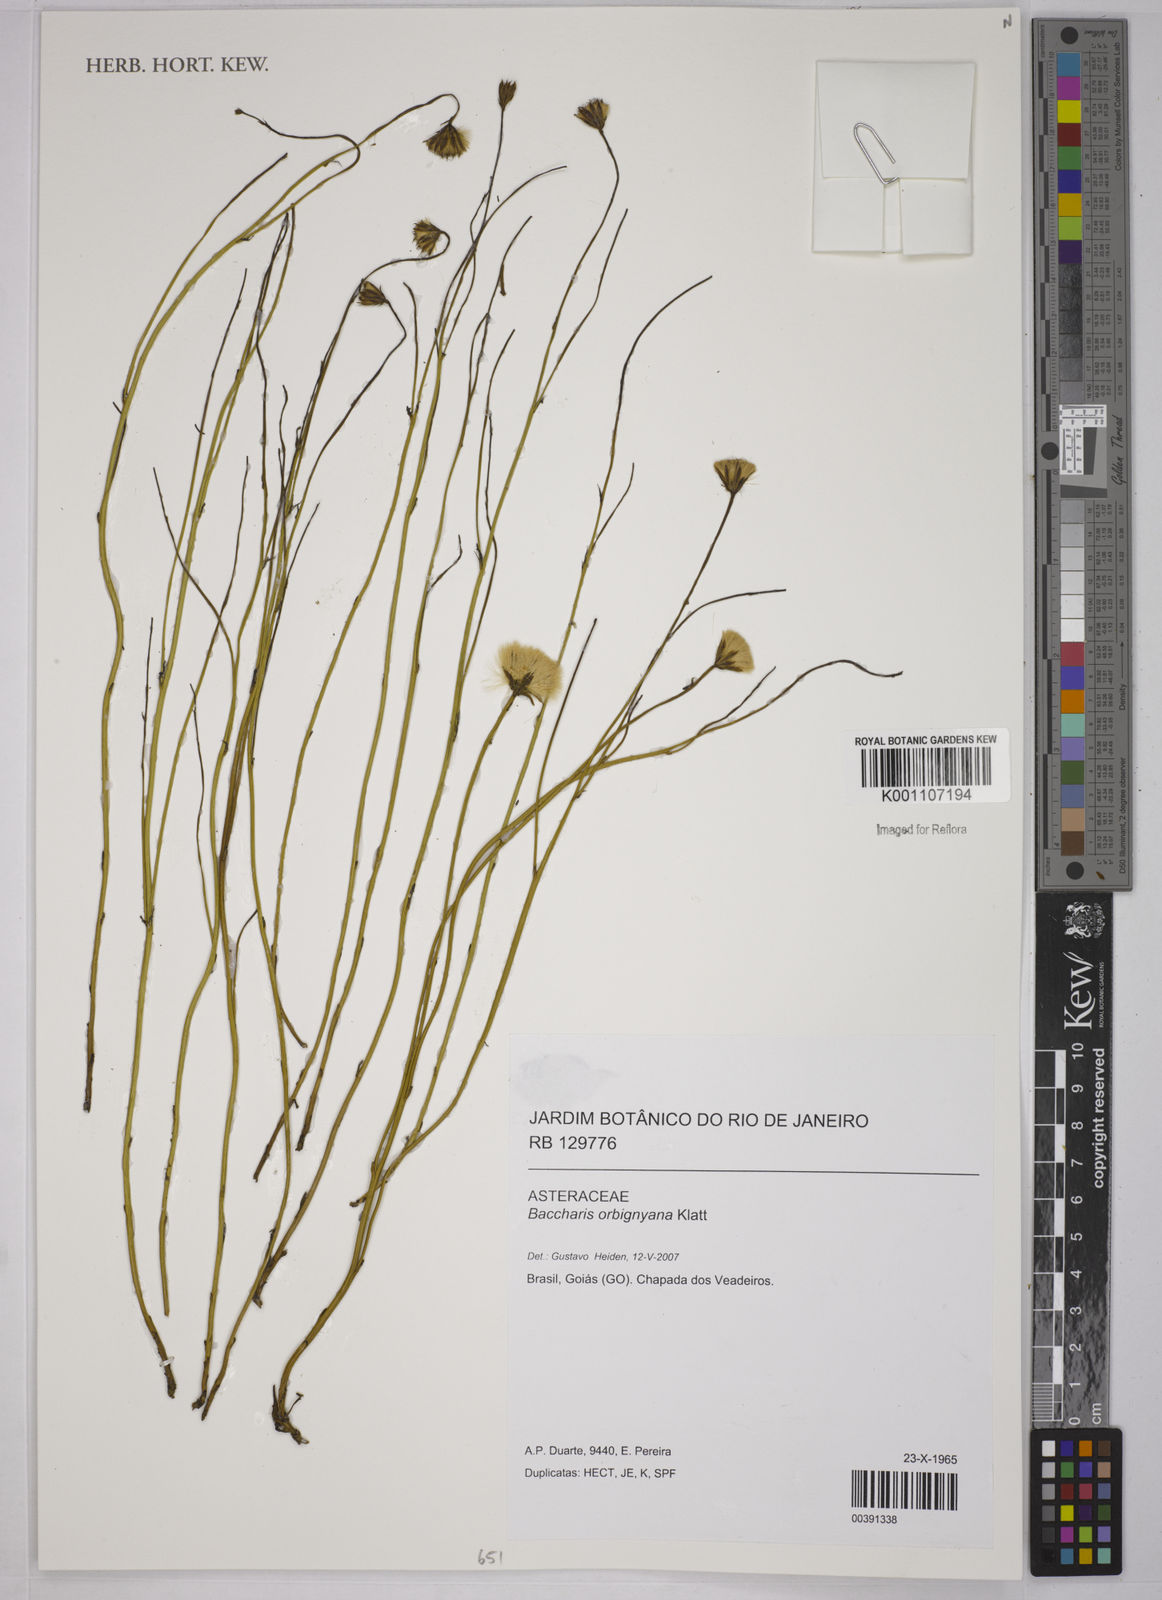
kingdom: Plantae
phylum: Tracheophyta
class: Magnoliopsida
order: Asterales
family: Asteraceae
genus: Baccharis
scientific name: Baccharis orbignyana
